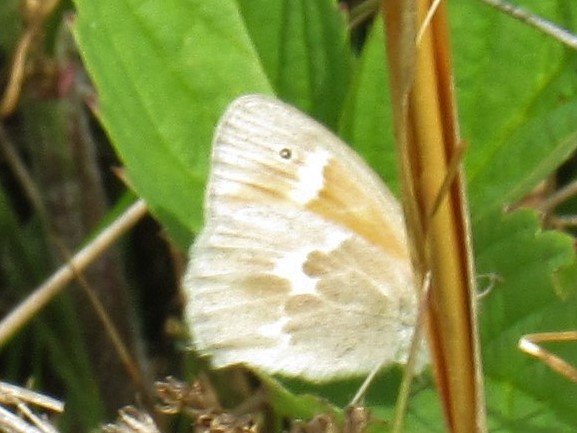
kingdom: Animalia
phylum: Arthropoda
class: Insecta
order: Lepidoptera
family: Nymphalidae
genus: Coenonympha
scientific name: Coenonympha tullia
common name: Large Heath
